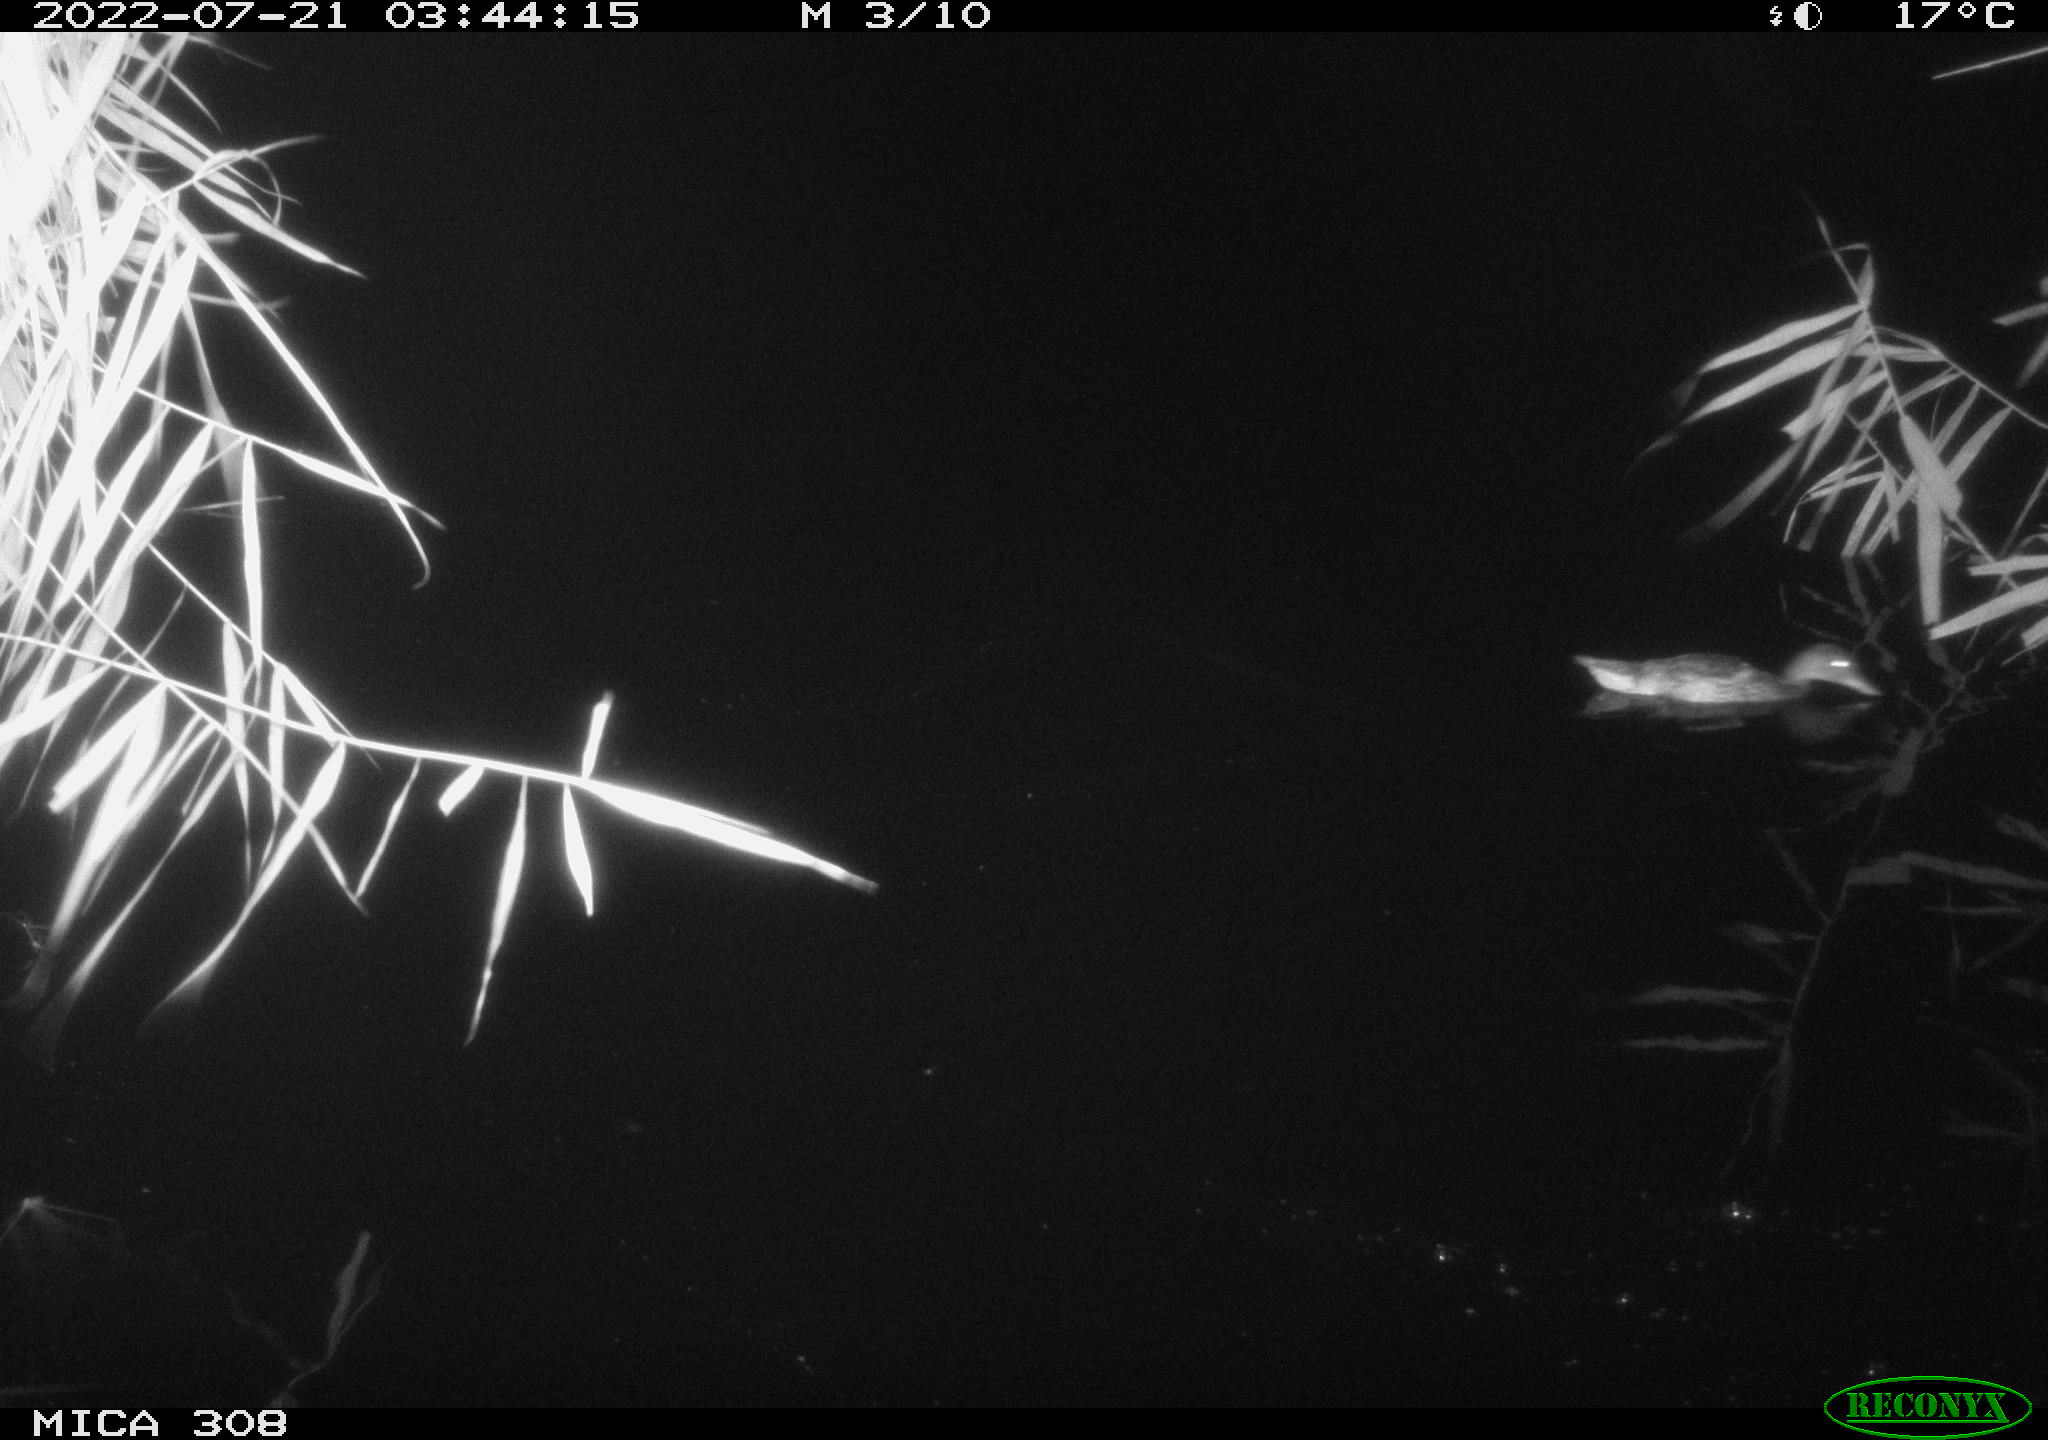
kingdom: Animalia
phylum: Chordata
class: Aves
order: Anseriformes
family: Anatidae
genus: Anas
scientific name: Anas platyrhynchos
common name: Mallard
